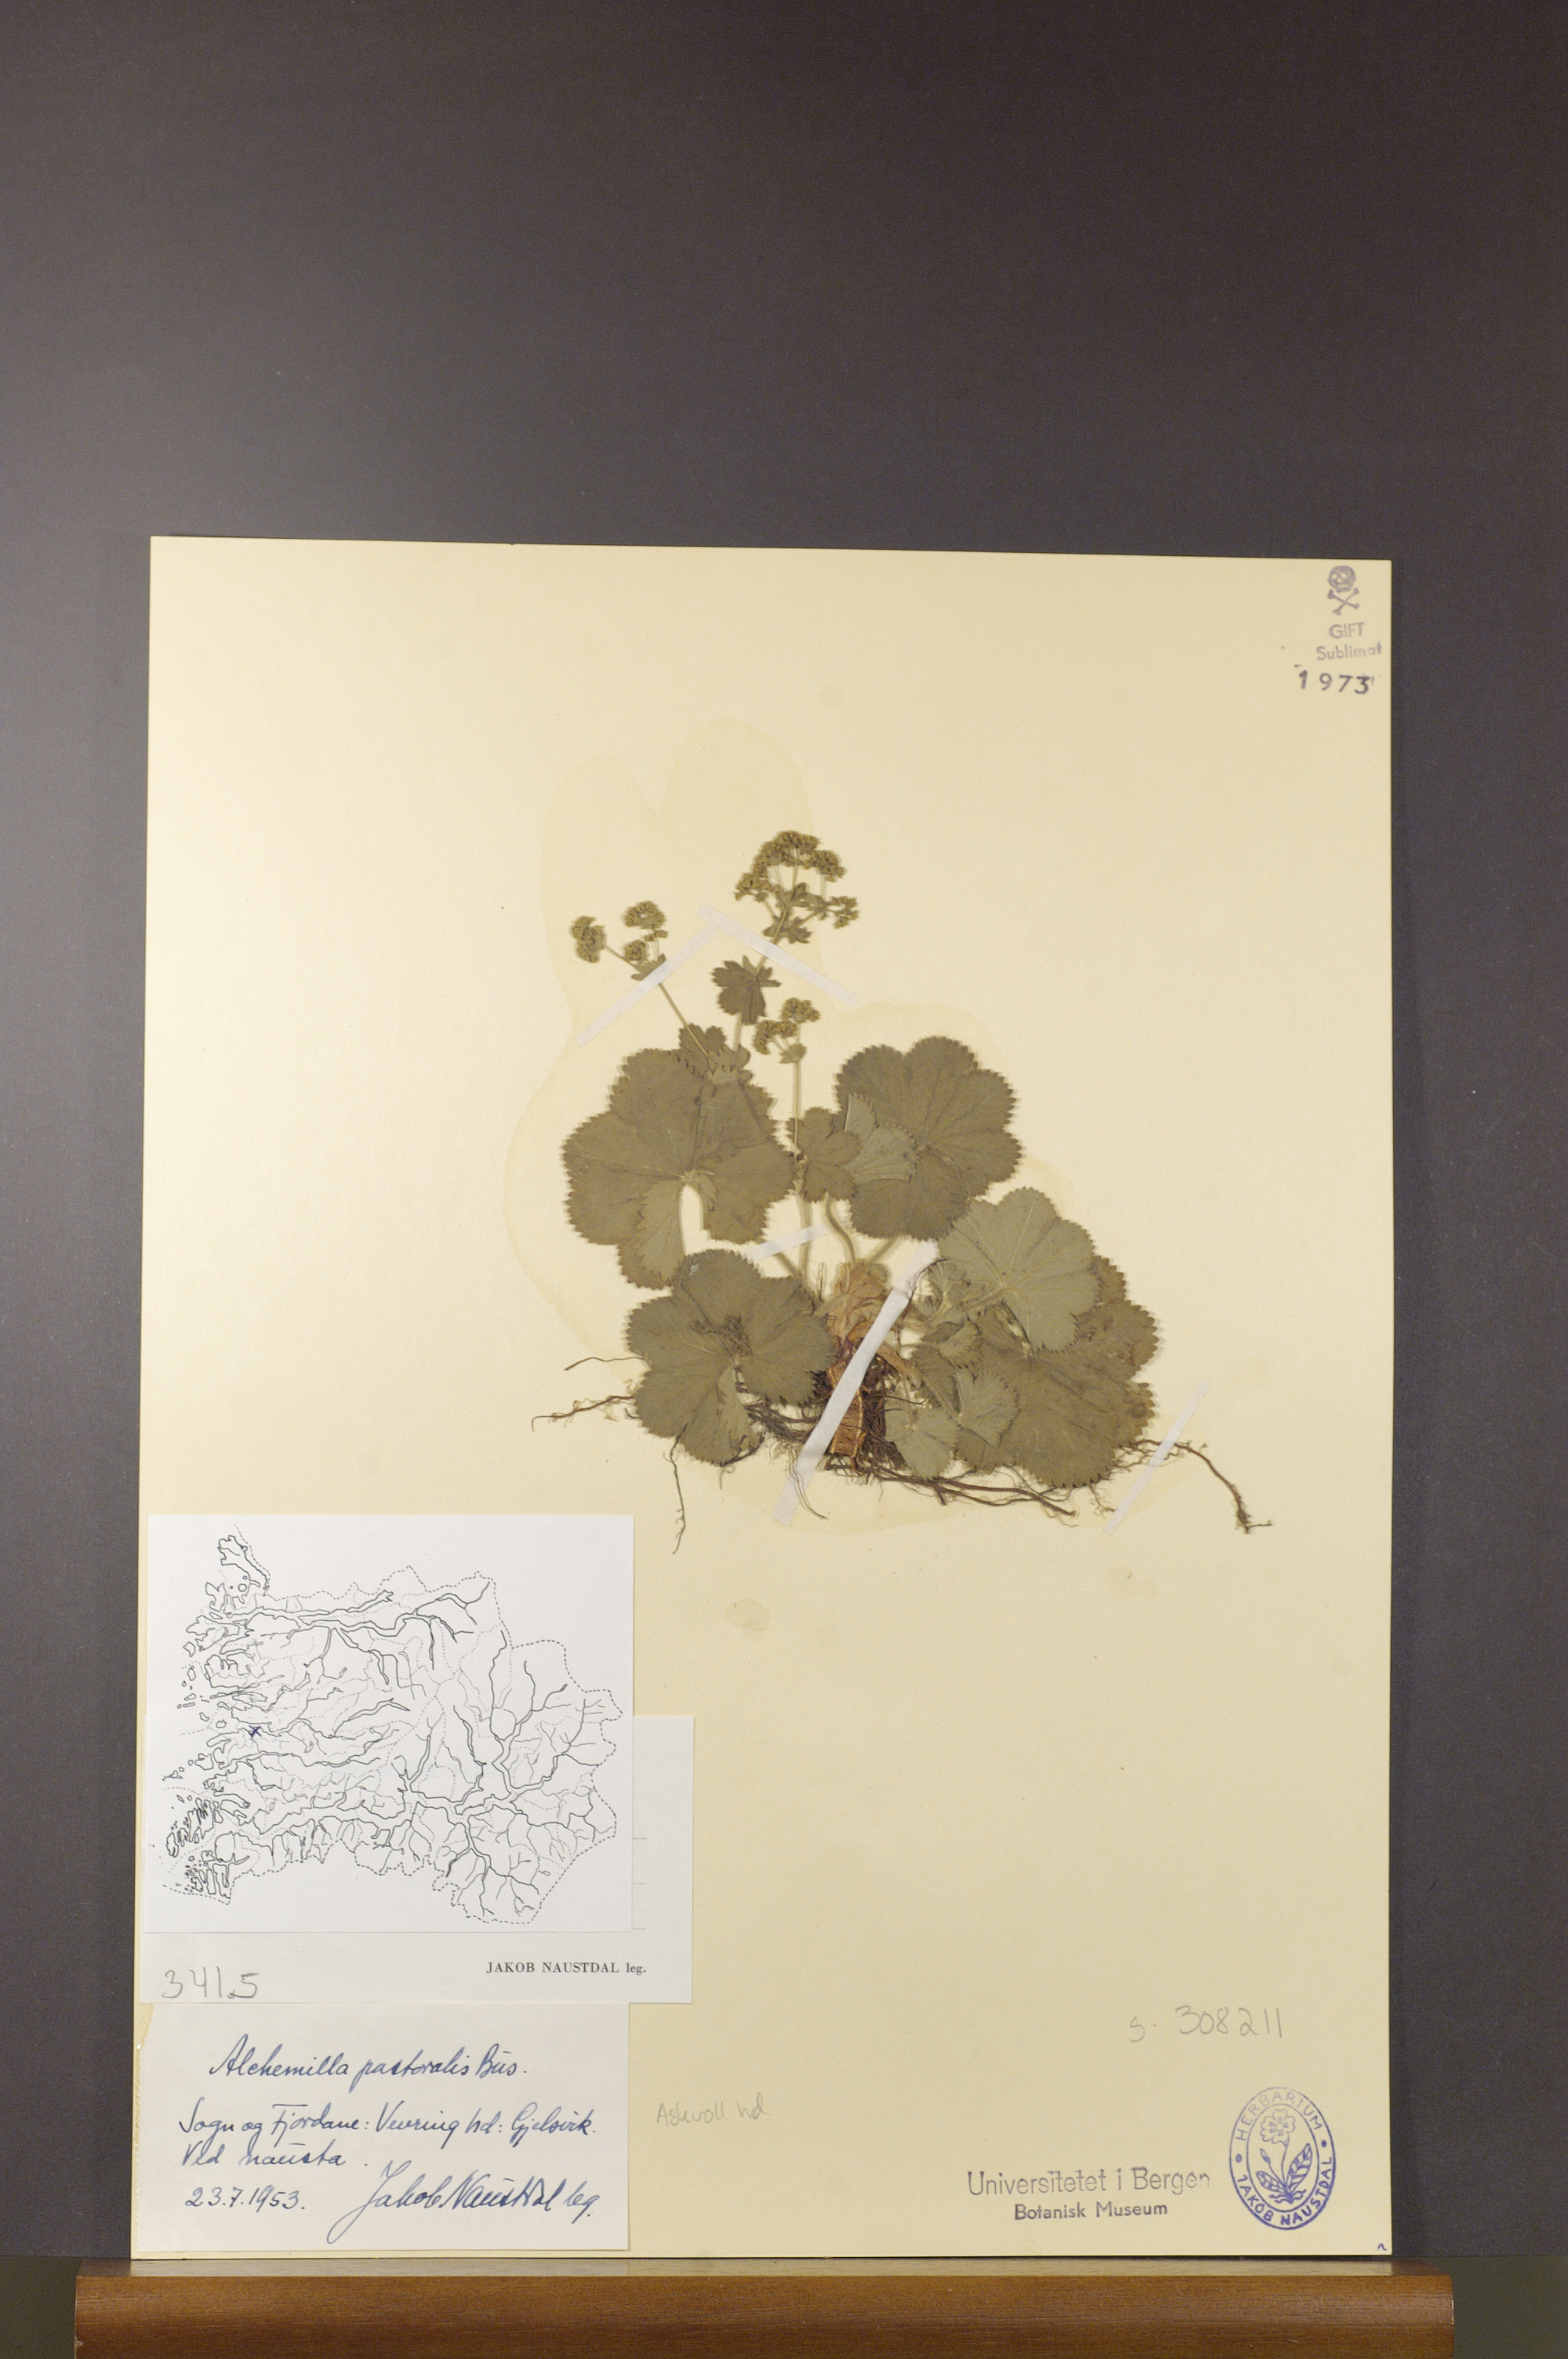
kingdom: Plantae
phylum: Tracheophyta
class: Magnoliopsida
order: Rosales
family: Rosaceae
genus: Alchemilla
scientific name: Alchemilla monticola
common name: Hairy lady's mantle
